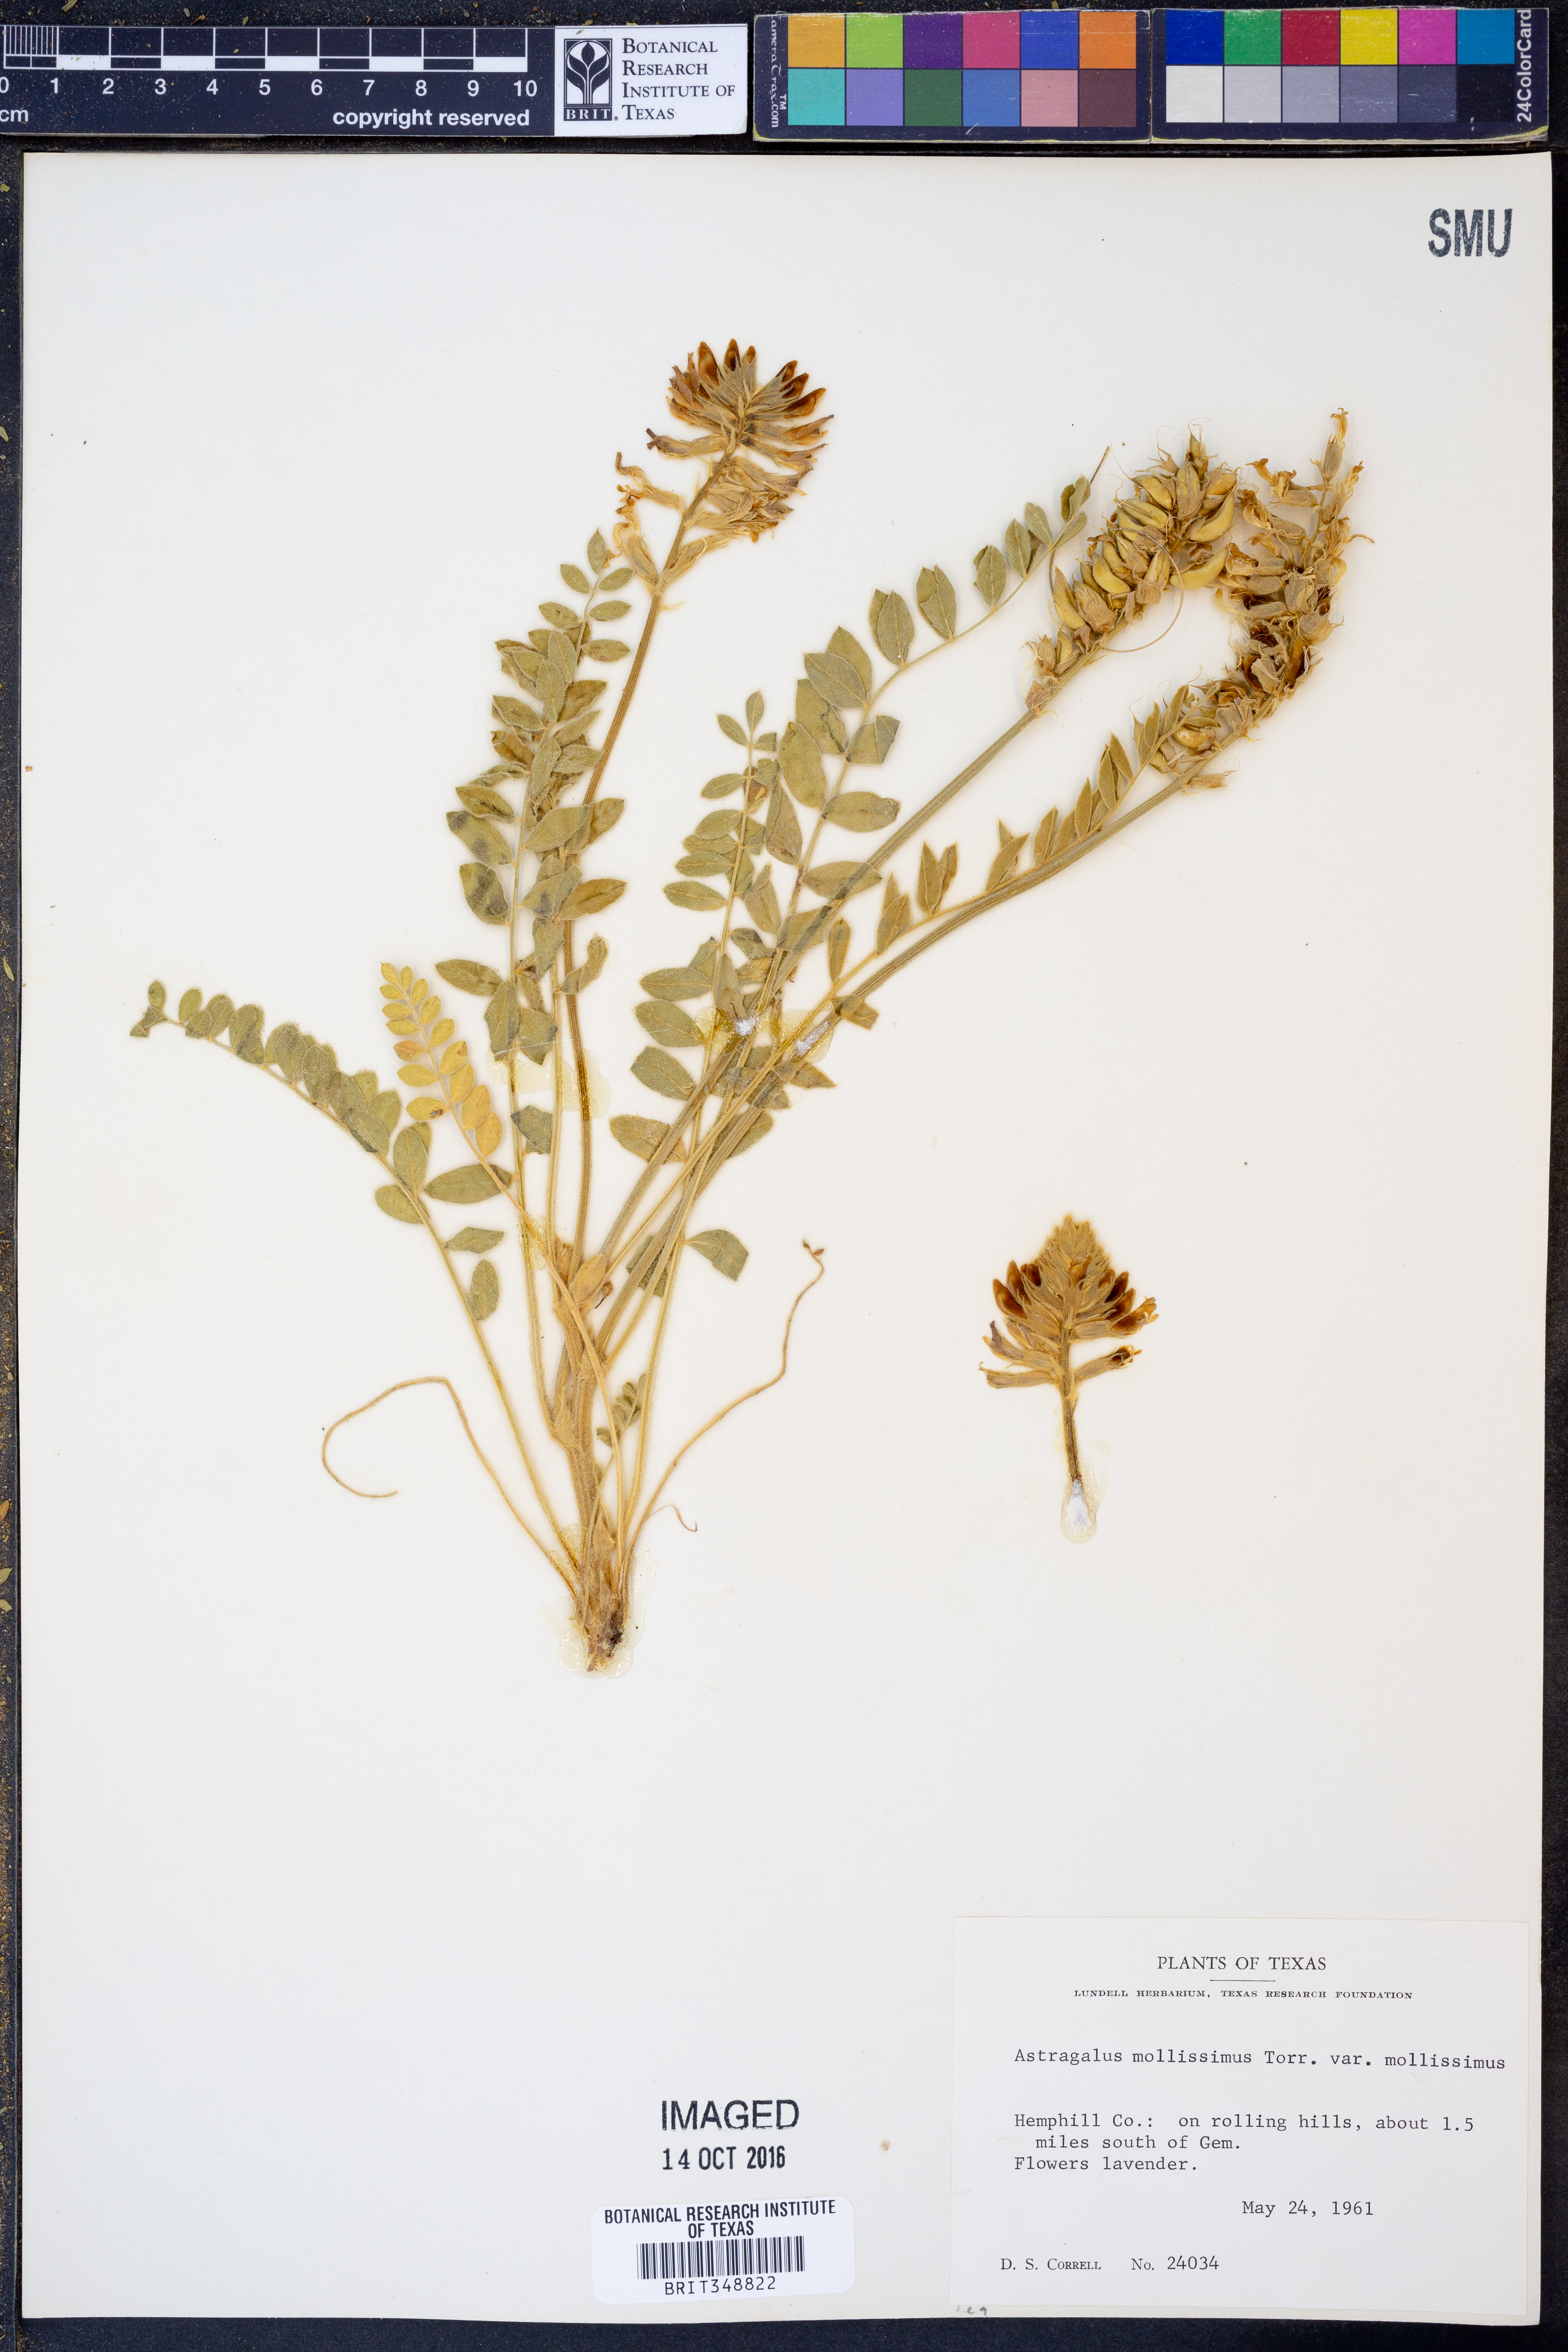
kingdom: Plantae
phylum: Tracheophyta
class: Magnoliopsida
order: Fabales
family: Fabaceae
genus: Astragalus
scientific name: Astragalus mollissimus
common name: Woolly locoweed
